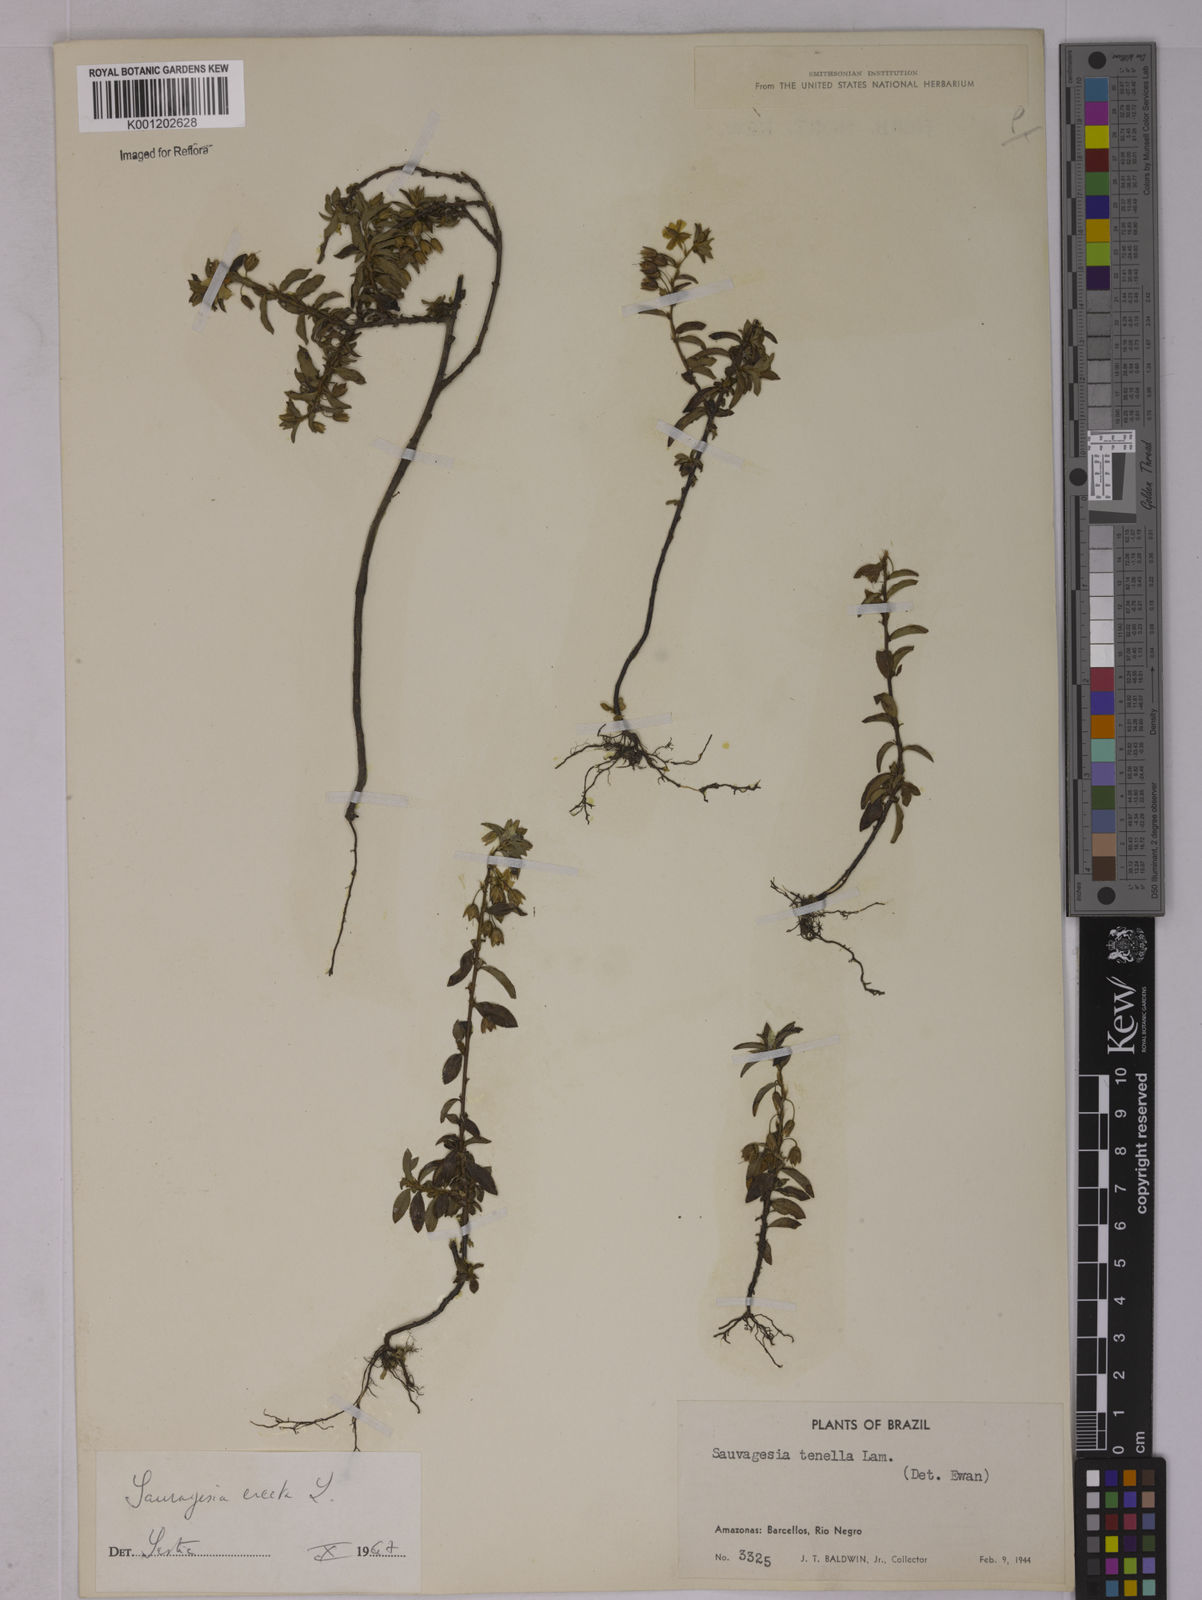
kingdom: Plantae
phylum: Tracheophyta
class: Magnoliopsida
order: Malpighiales
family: Ochnaceae
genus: Sauvagesia
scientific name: Sauvagesia erecta
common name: Creole tea
